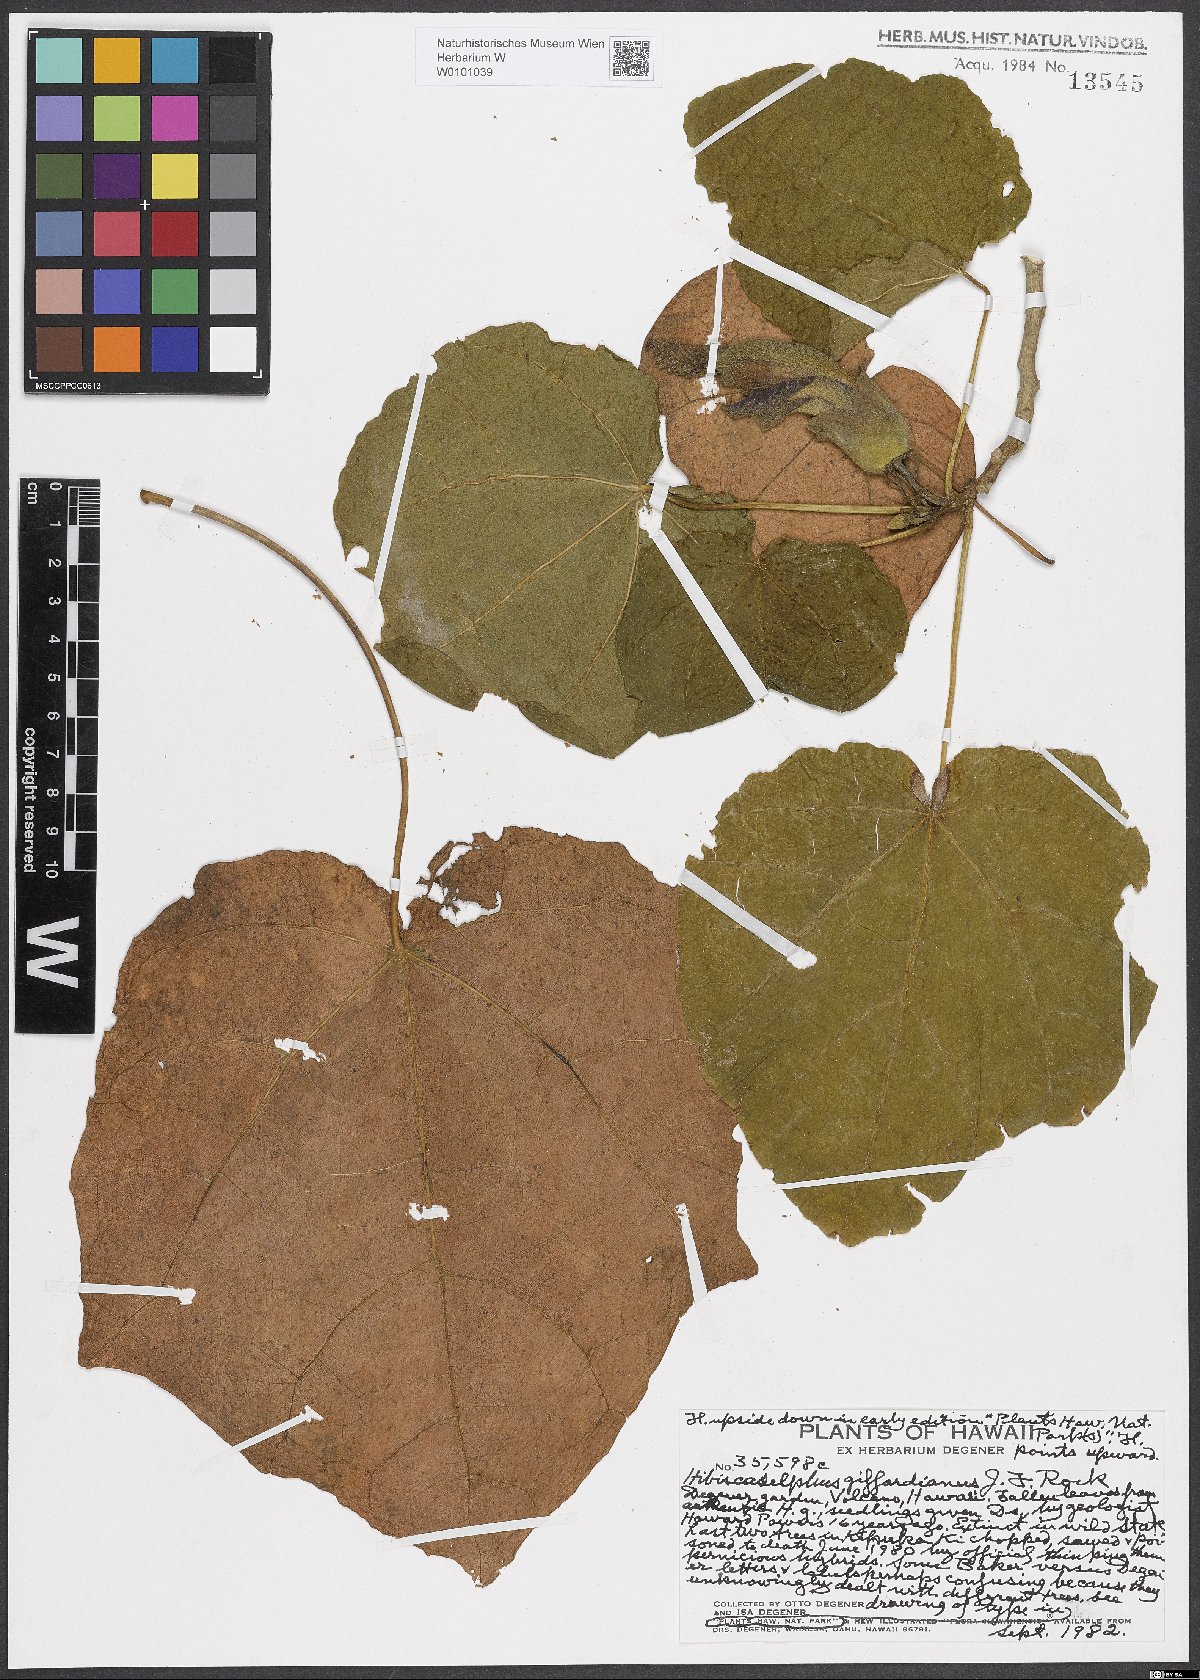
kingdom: Plantae
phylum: Tracheophyta
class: Magnoliopsida
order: Malvales
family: Malvaceae
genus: Hibiscadelphus
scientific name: Hibiscadelphus giffardianus
